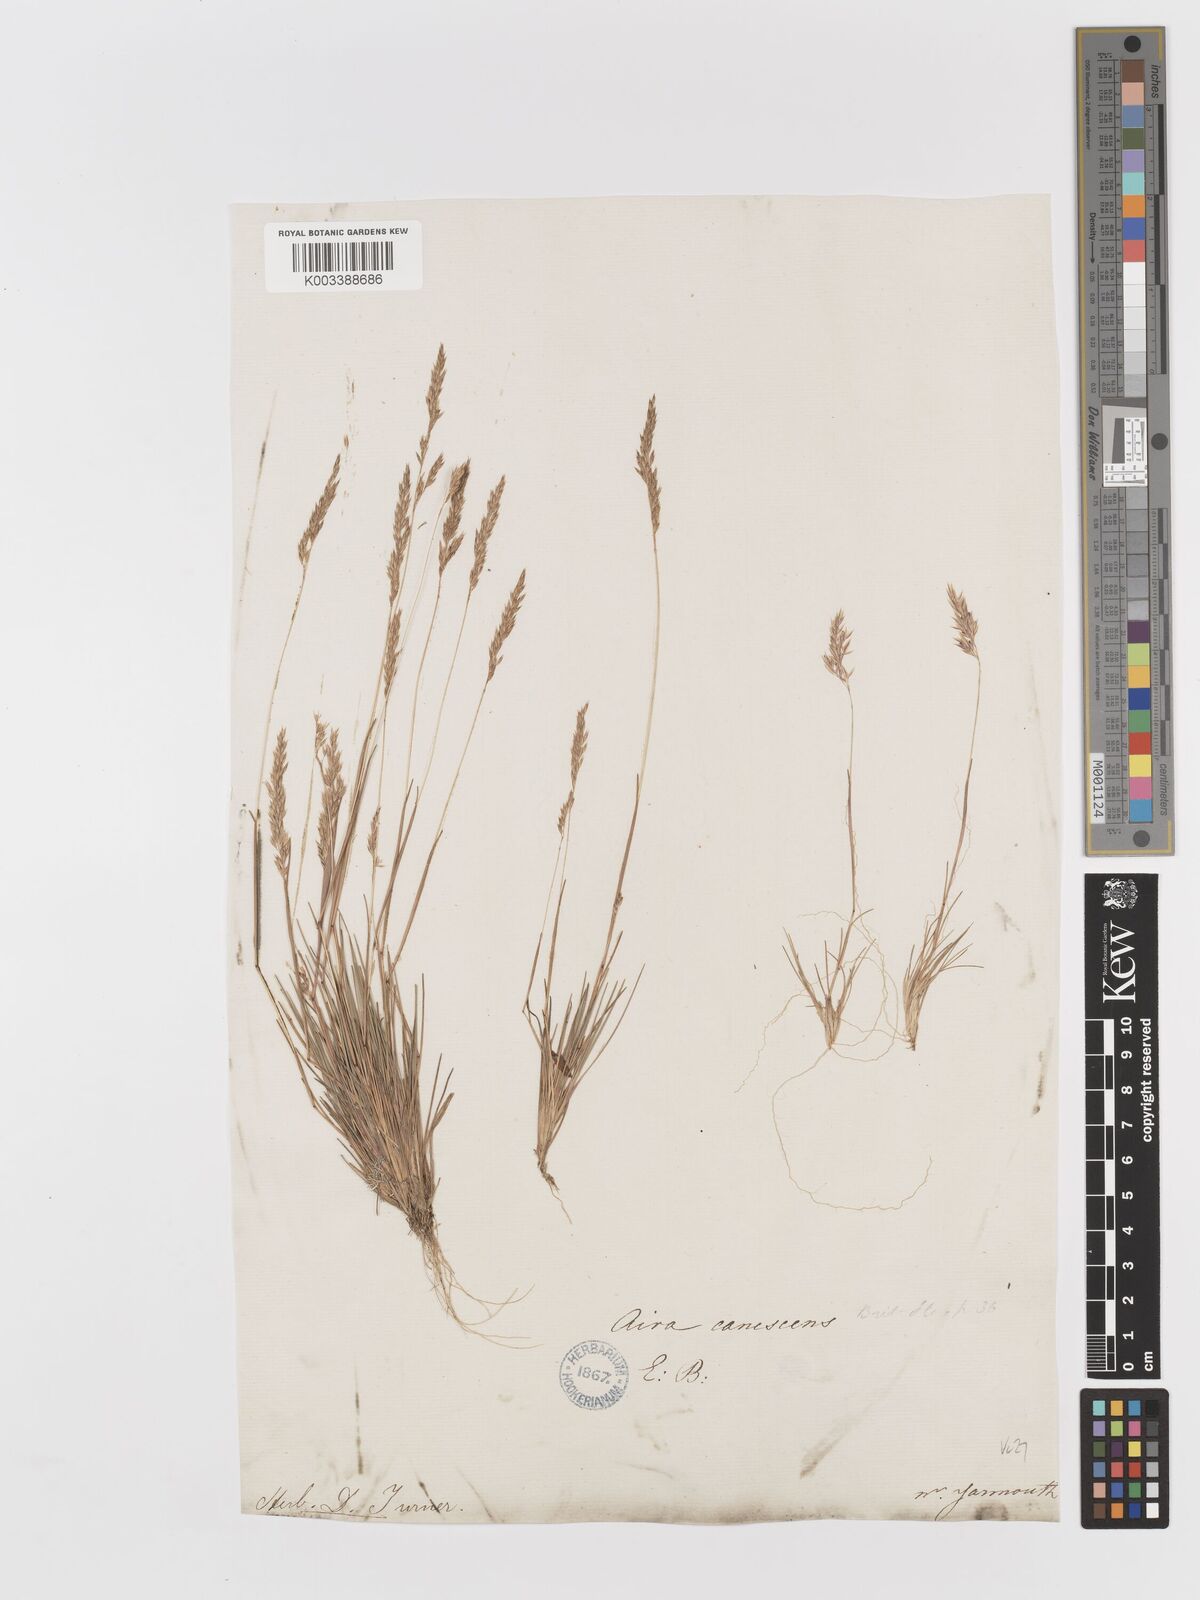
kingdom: Plantae
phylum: Tracheophyta
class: Liliopsida
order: Poales
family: Poaceae
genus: Corynephorus
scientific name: Corynephorus canescens
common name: Grey hair-grass
